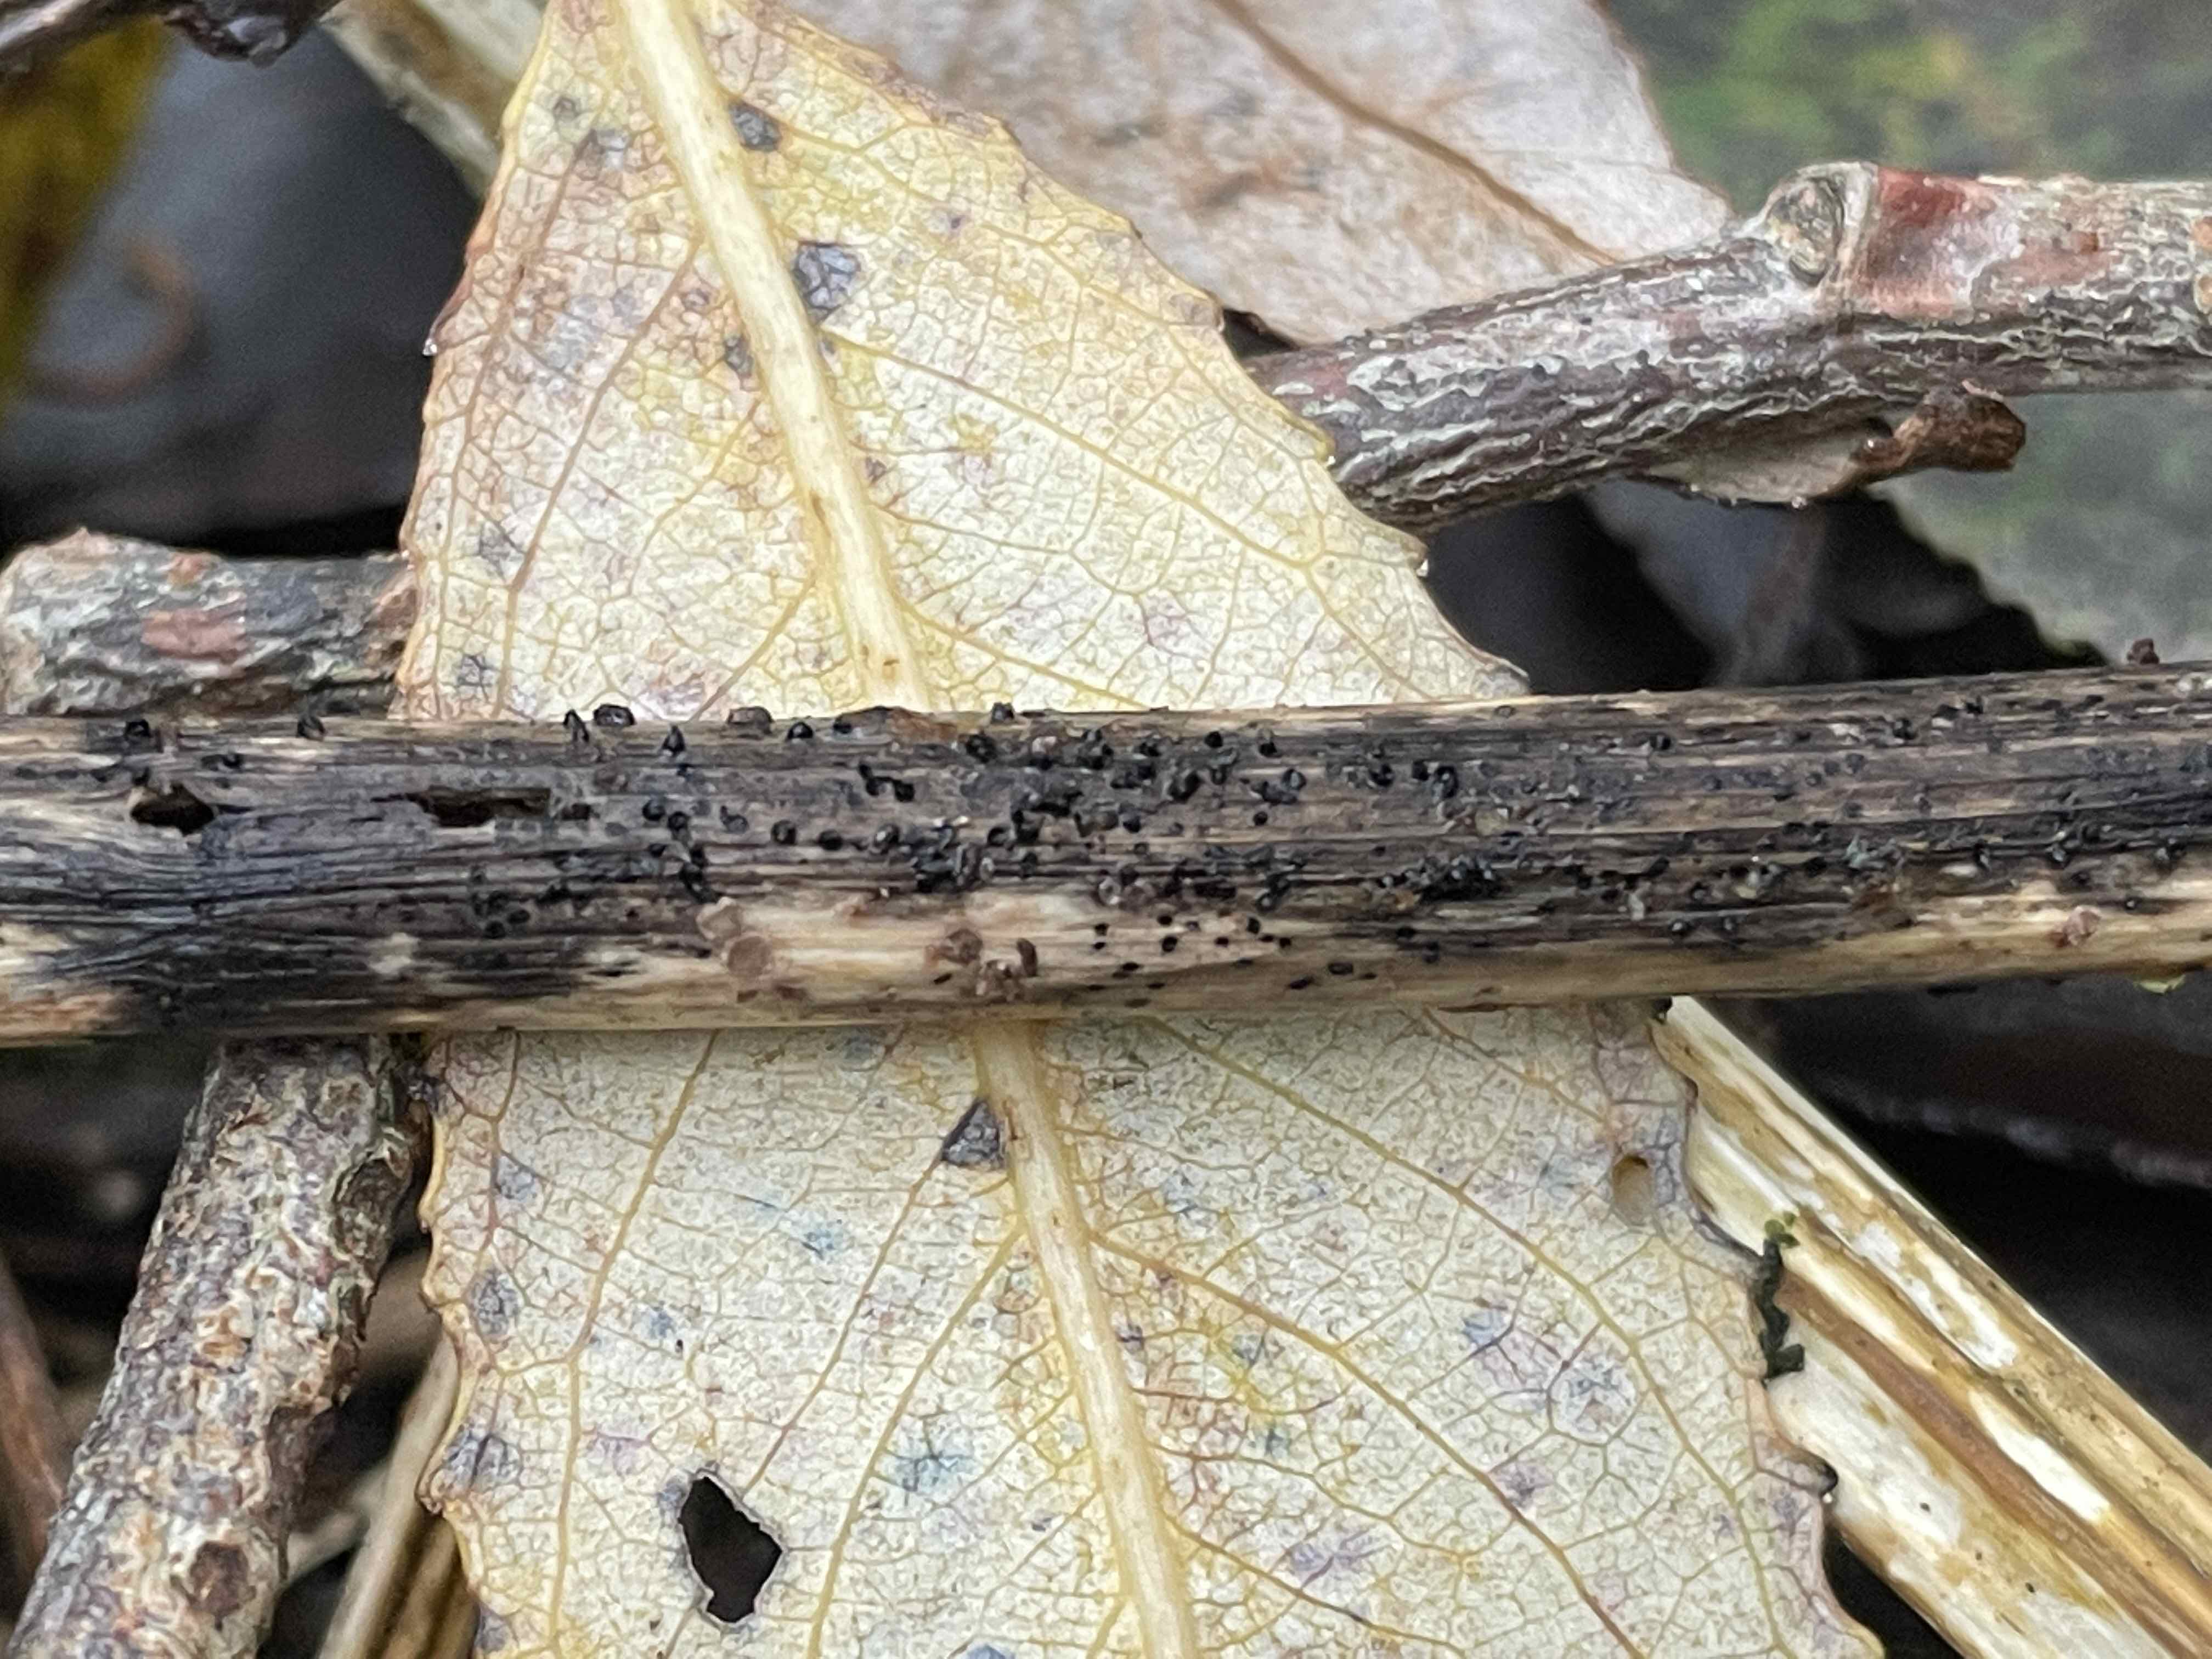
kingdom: Fungi
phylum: Ascomycota
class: Dothideomycetes
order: Pleosporales
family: Leptosphaeriaceae
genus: Leptosphaeria
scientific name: Leptosphaeria
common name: kulkegle
